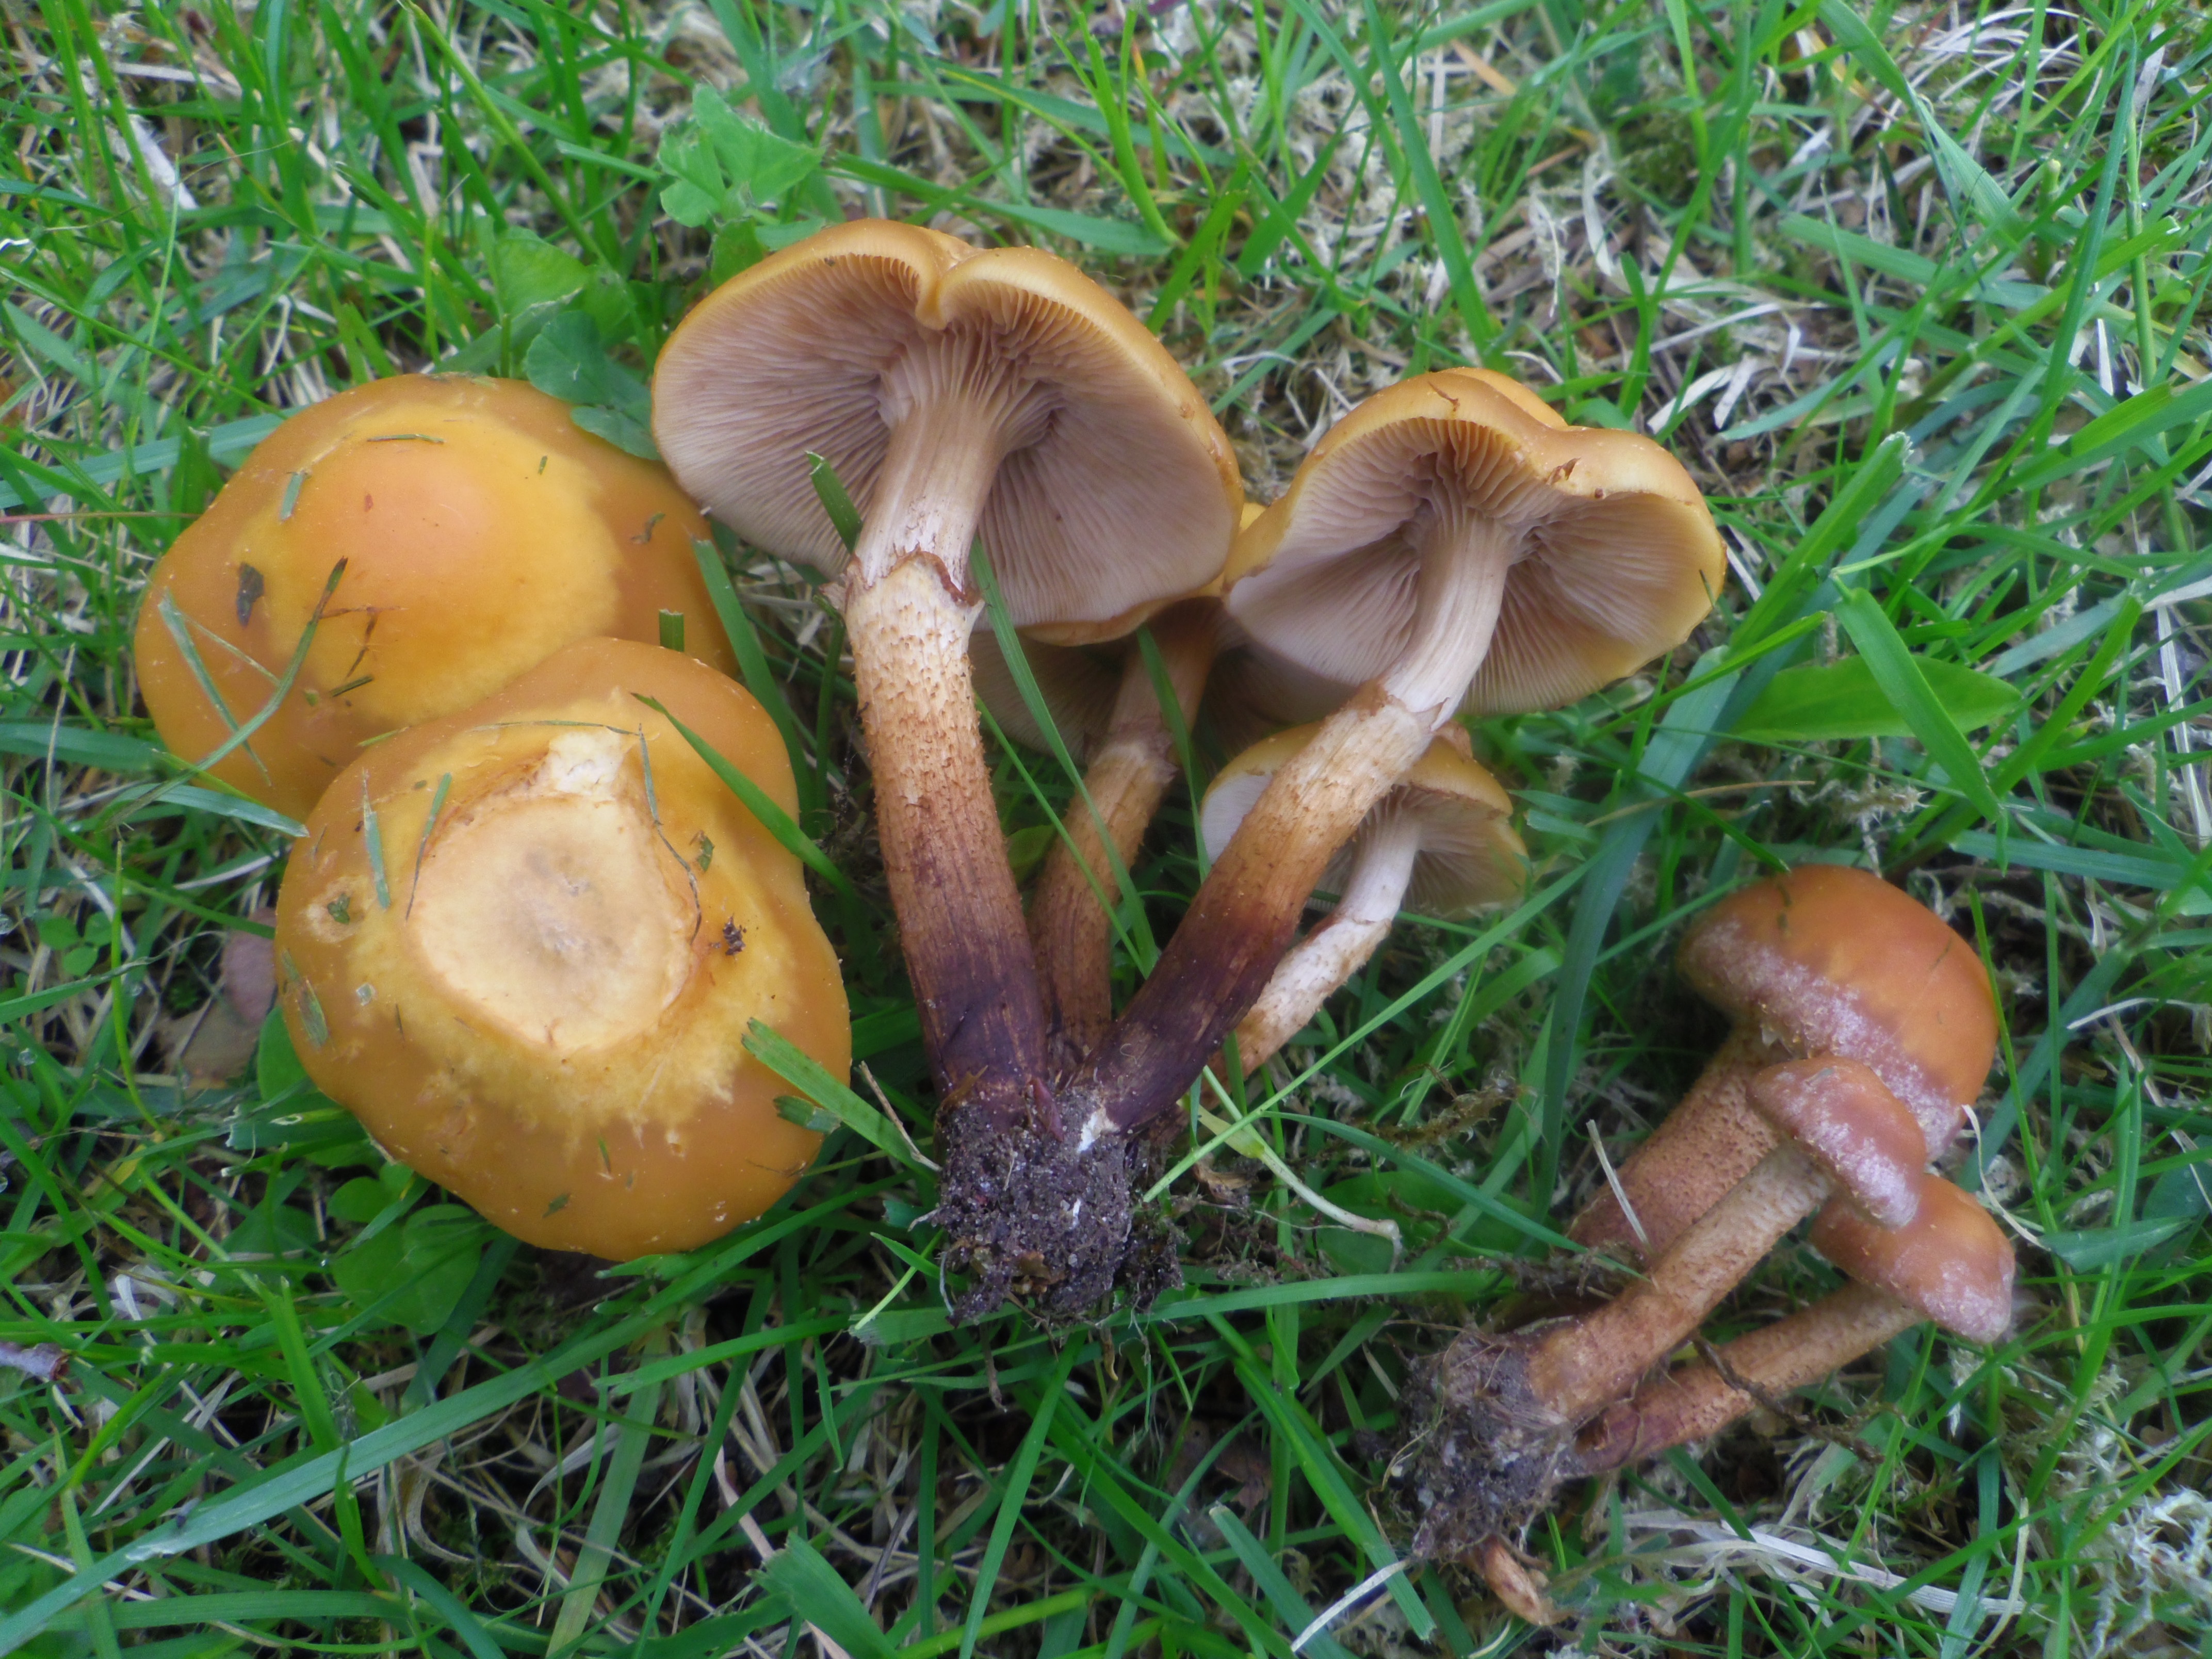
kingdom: Fungi
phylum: Basidiomycota
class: Agaricomycetes
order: Agaricales
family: Strophariaceae
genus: Kuehneromyces
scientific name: Kuehneromyces mutabilis
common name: Sheathed woodtuft
